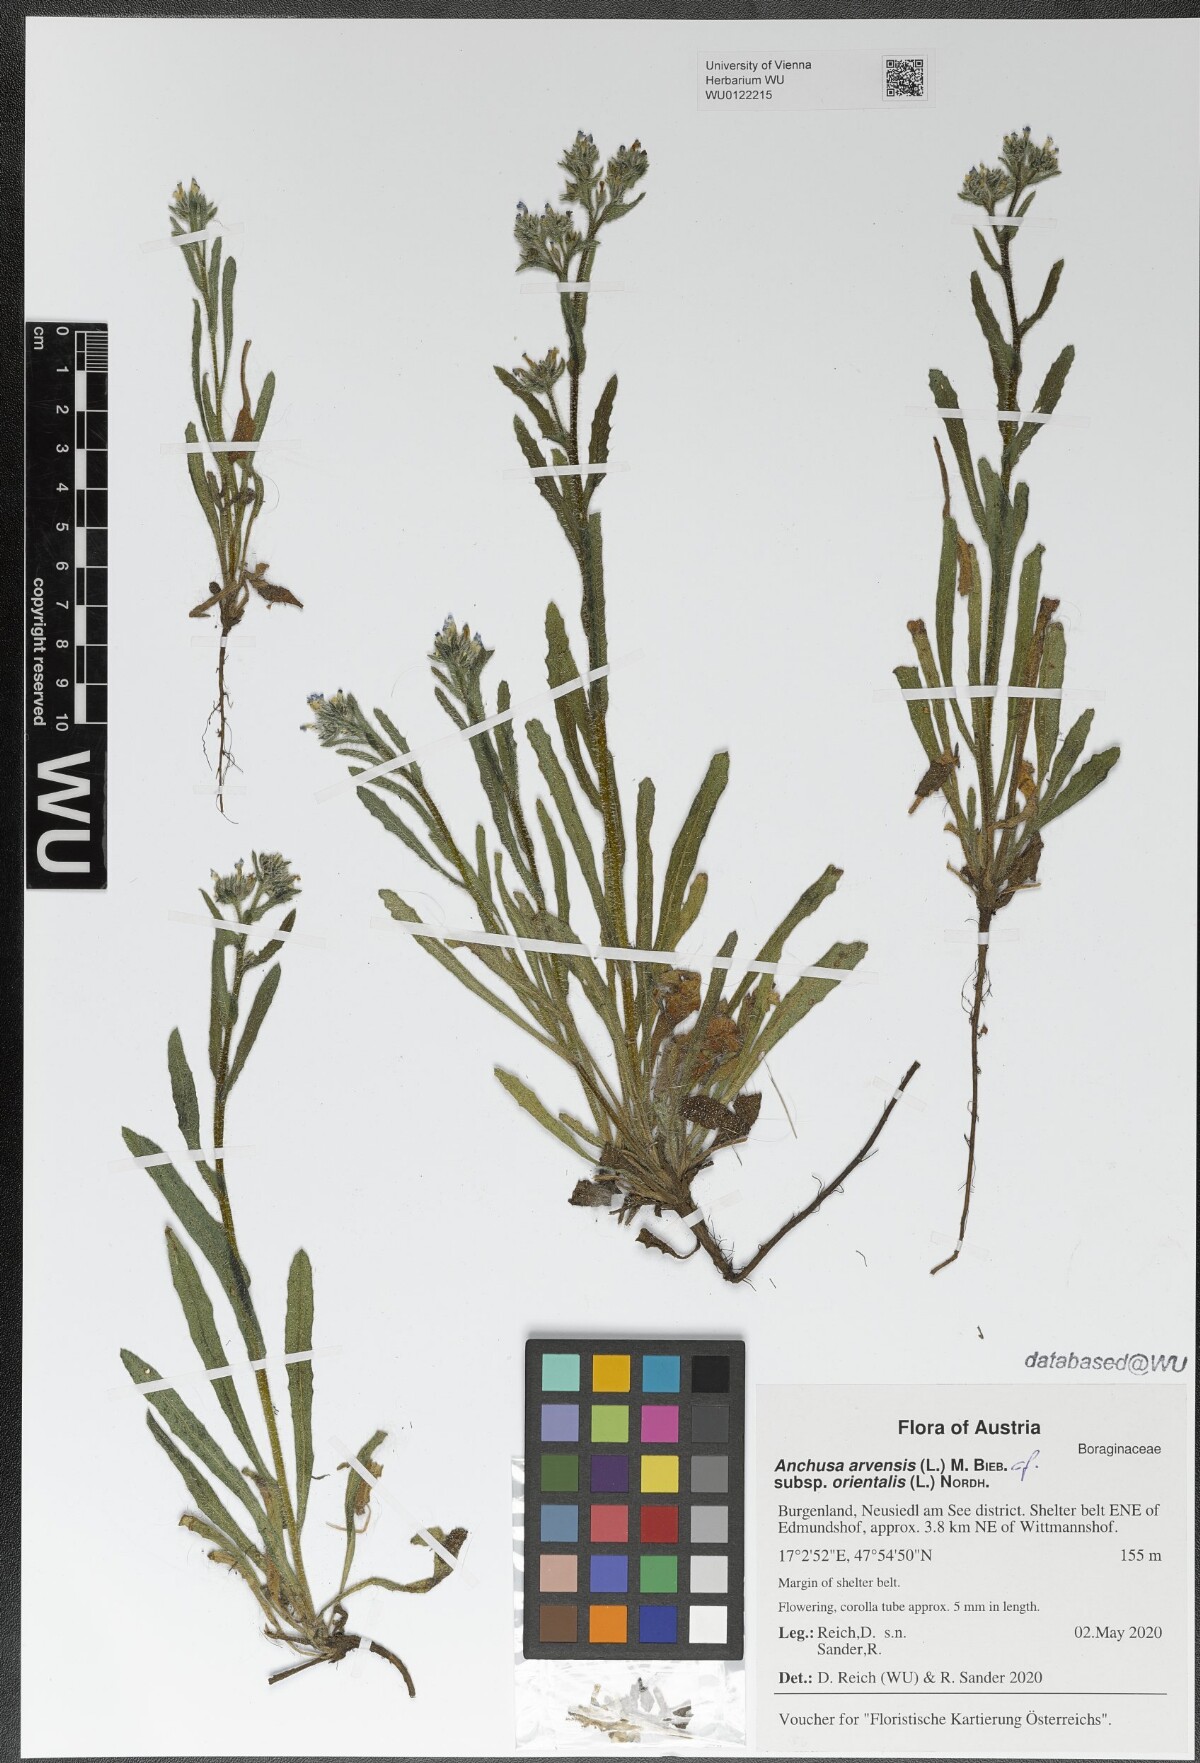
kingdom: Plantae
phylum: Tracheophyta
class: Magnoliopsida
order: Boraginales
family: Boraginaceae
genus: Lycopsis
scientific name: Lycopsis arvensis
